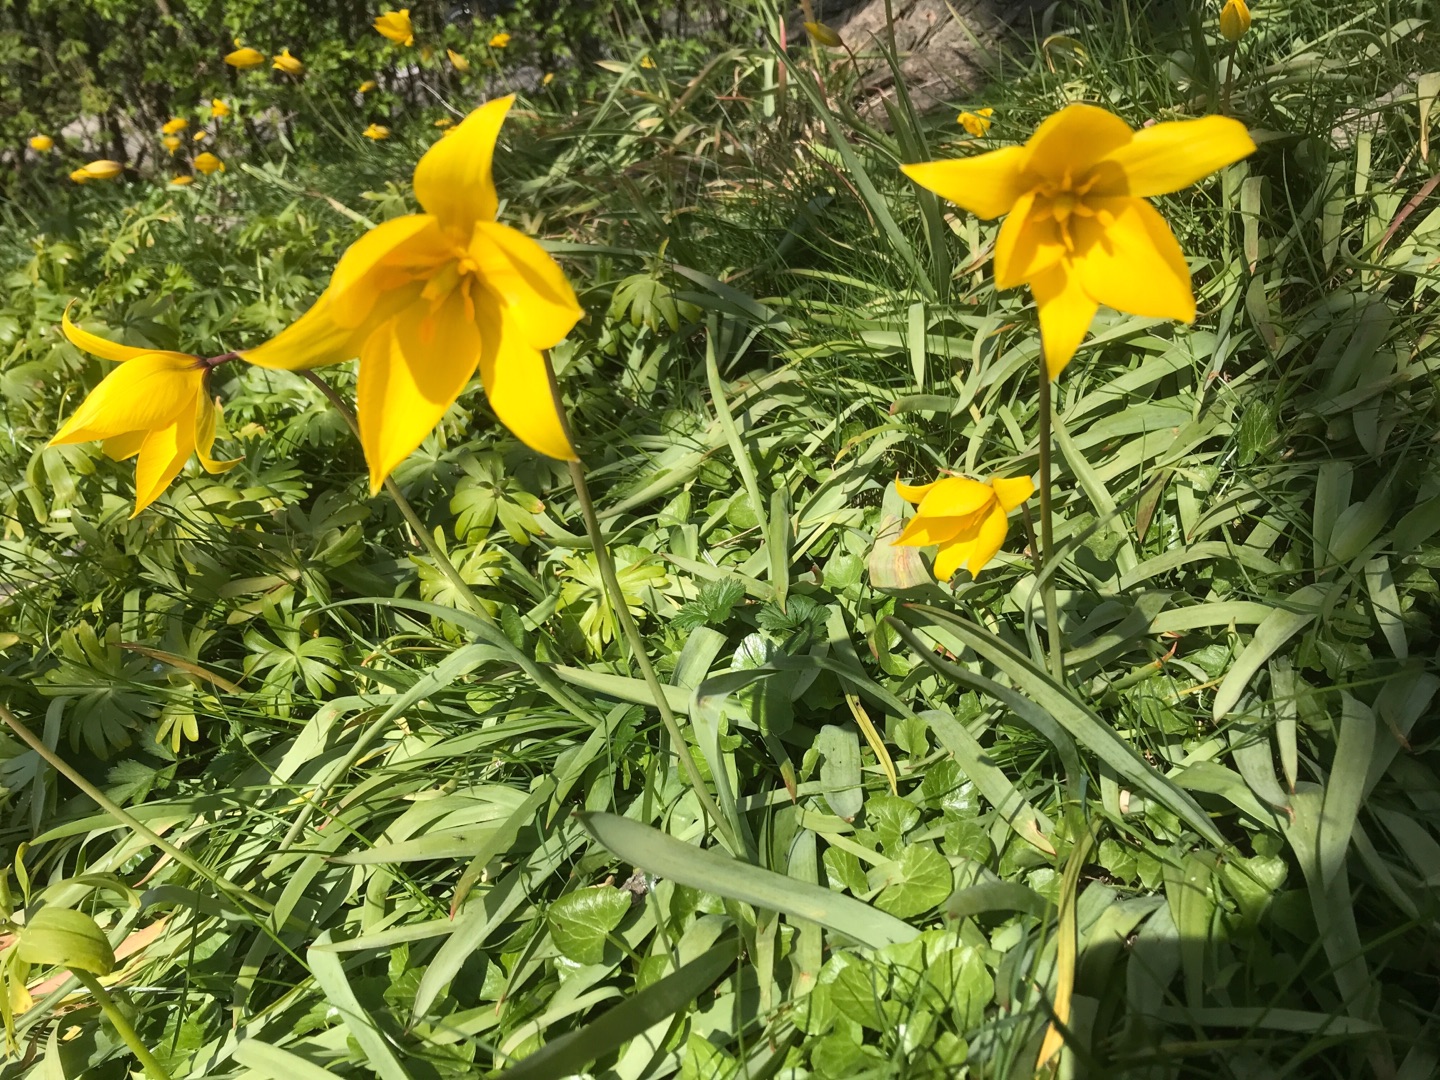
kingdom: Plantae
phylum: Tracheophyta
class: Liliopsida
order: Liliales
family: Liliaceae
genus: Tulipa
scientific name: Tulipa sylvestris
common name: Vild tulipan
